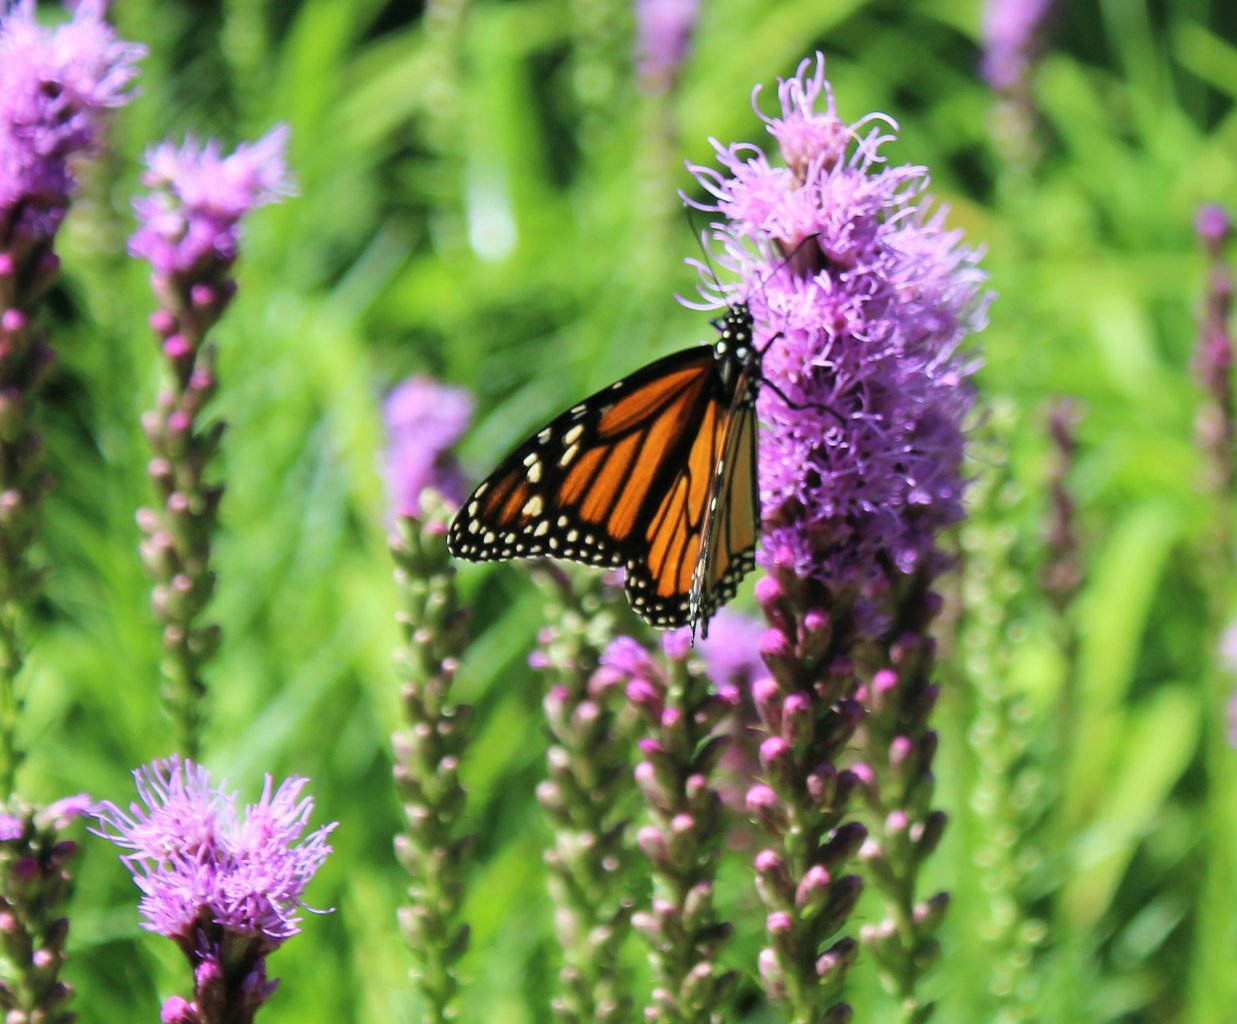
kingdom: Animalia
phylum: Arthropoda
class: Insecta
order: Lepidoptera
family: Nymphalidae
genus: Danaus
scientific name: Danaus plexippus
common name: Monarch
